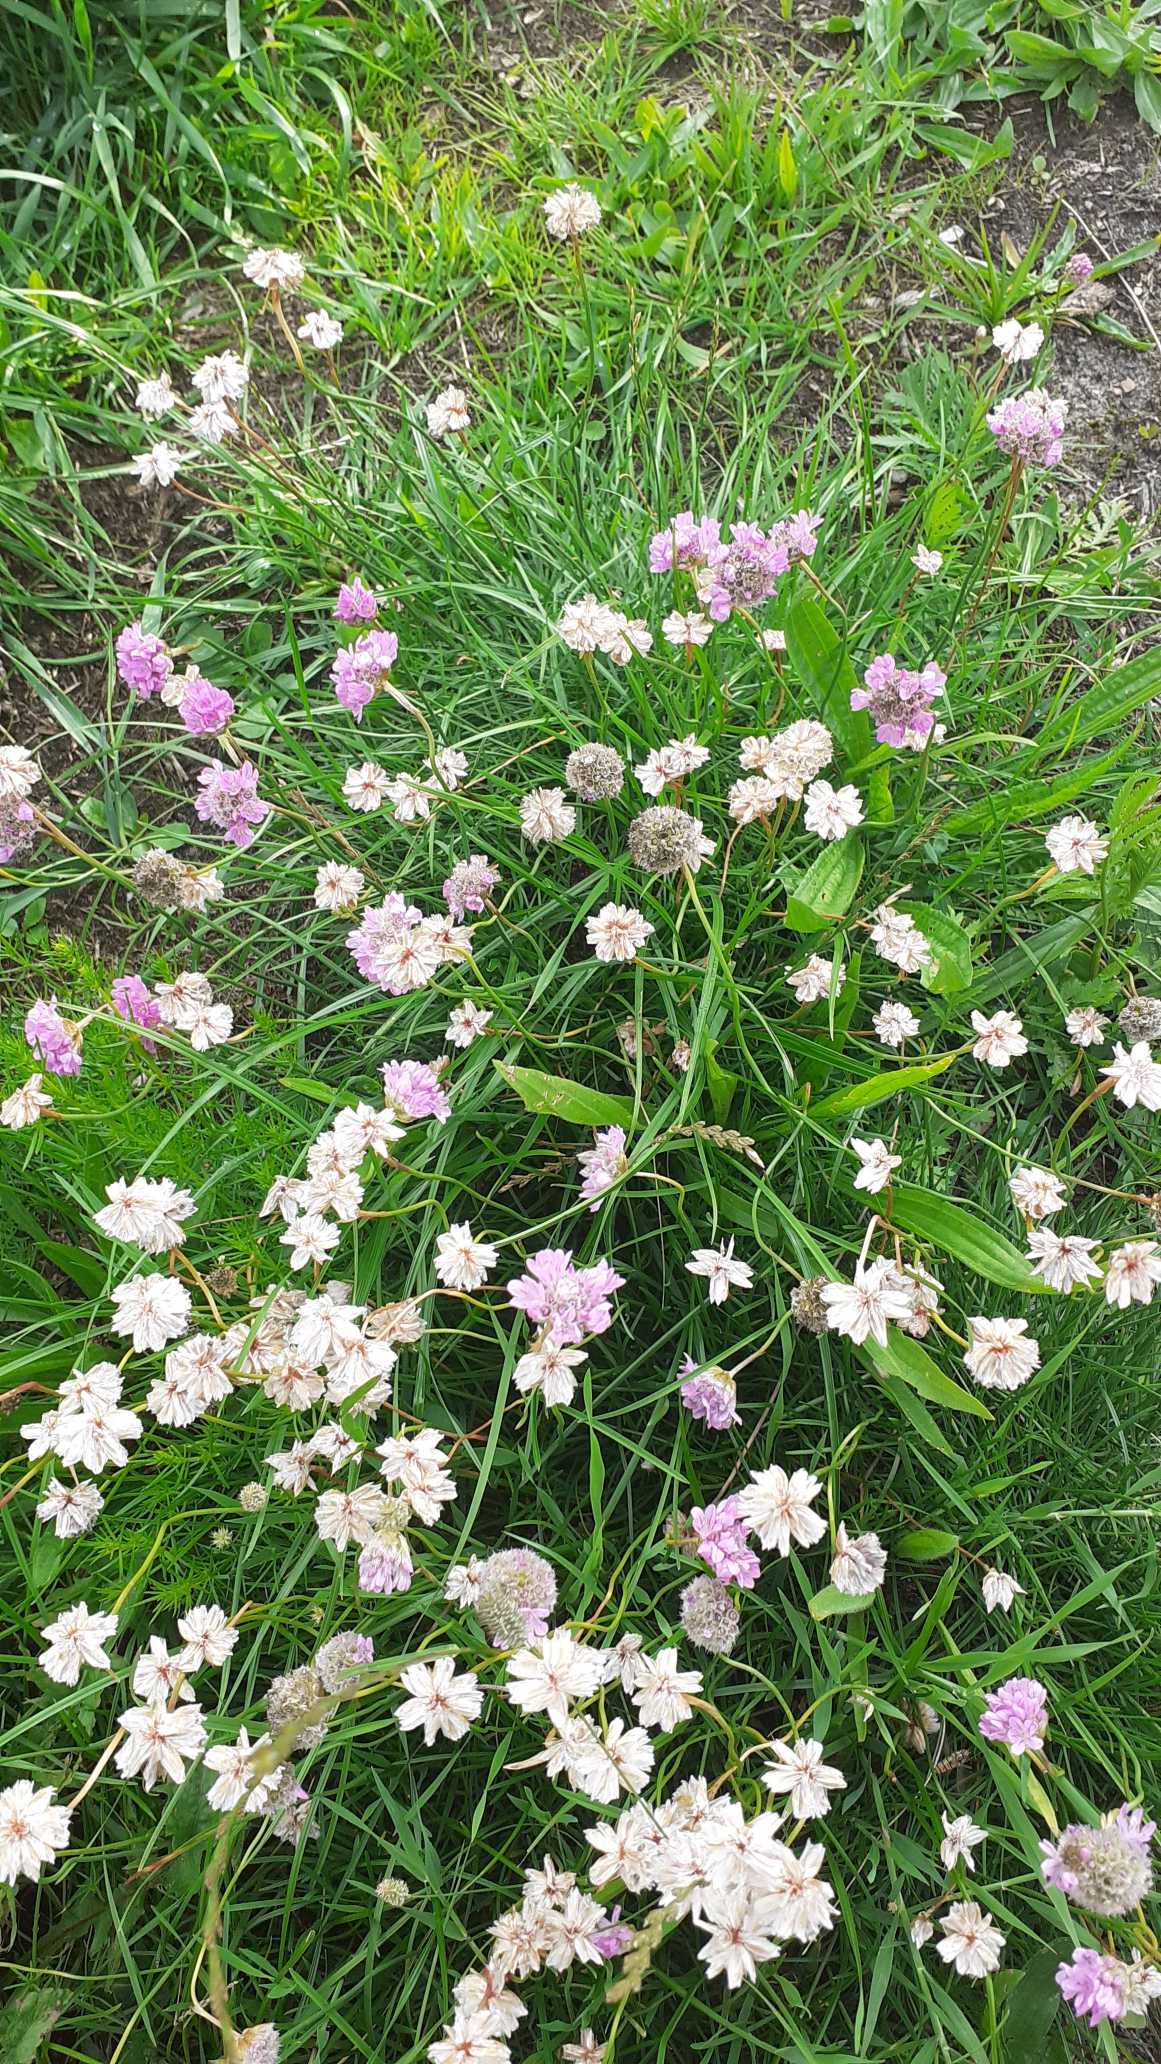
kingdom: Plantae
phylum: Tracheophyta
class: Magnoliopsida
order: Caryophyllales
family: Plumbaginaceae
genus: Armeria
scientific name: Armeria maritima
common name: Engelskgræs
